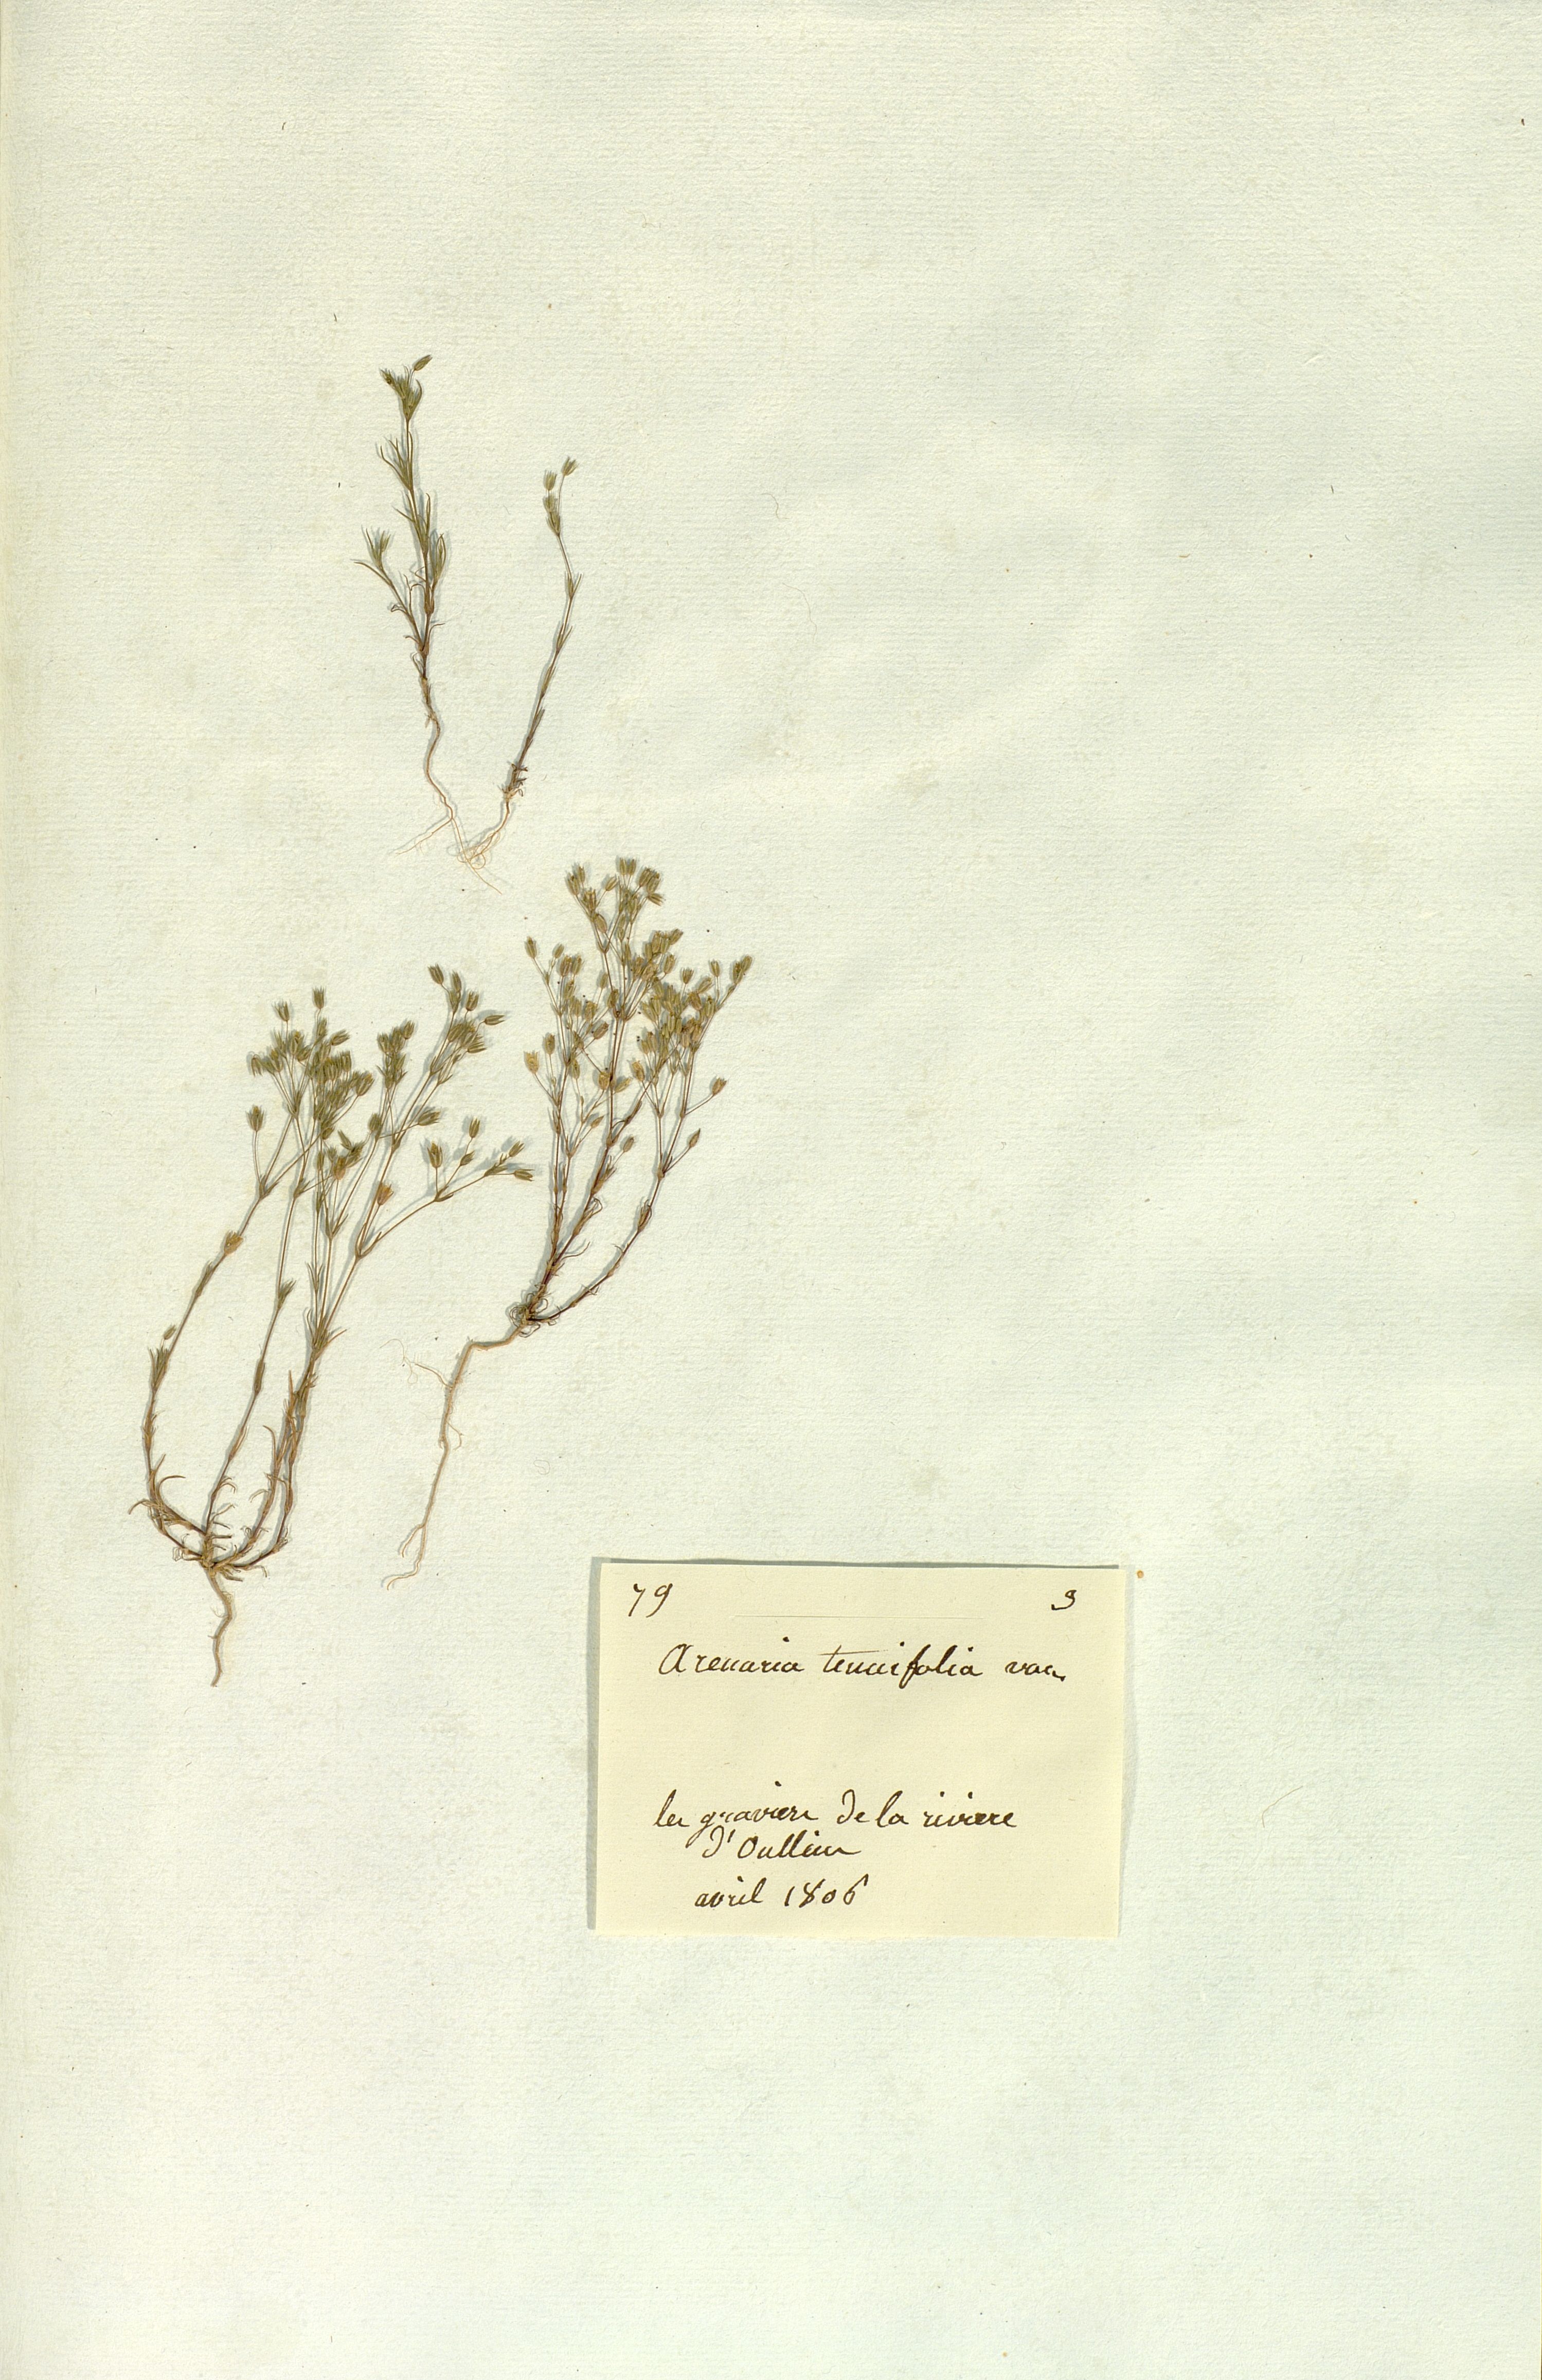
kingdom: Plantae
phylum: Tracheophyta
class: Magnoliopsida
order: Caryophyllales
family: Caryophyllaceae
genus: Sabulina
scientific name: Sabulina tenuifolia
